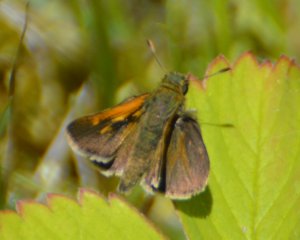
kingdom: Animalia
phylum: Arthropoda
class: Insecta
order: Lepidoptera
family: Hesperiidae
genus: Polites
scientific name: Polites themistocles
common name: Tawny-edged Skipper
